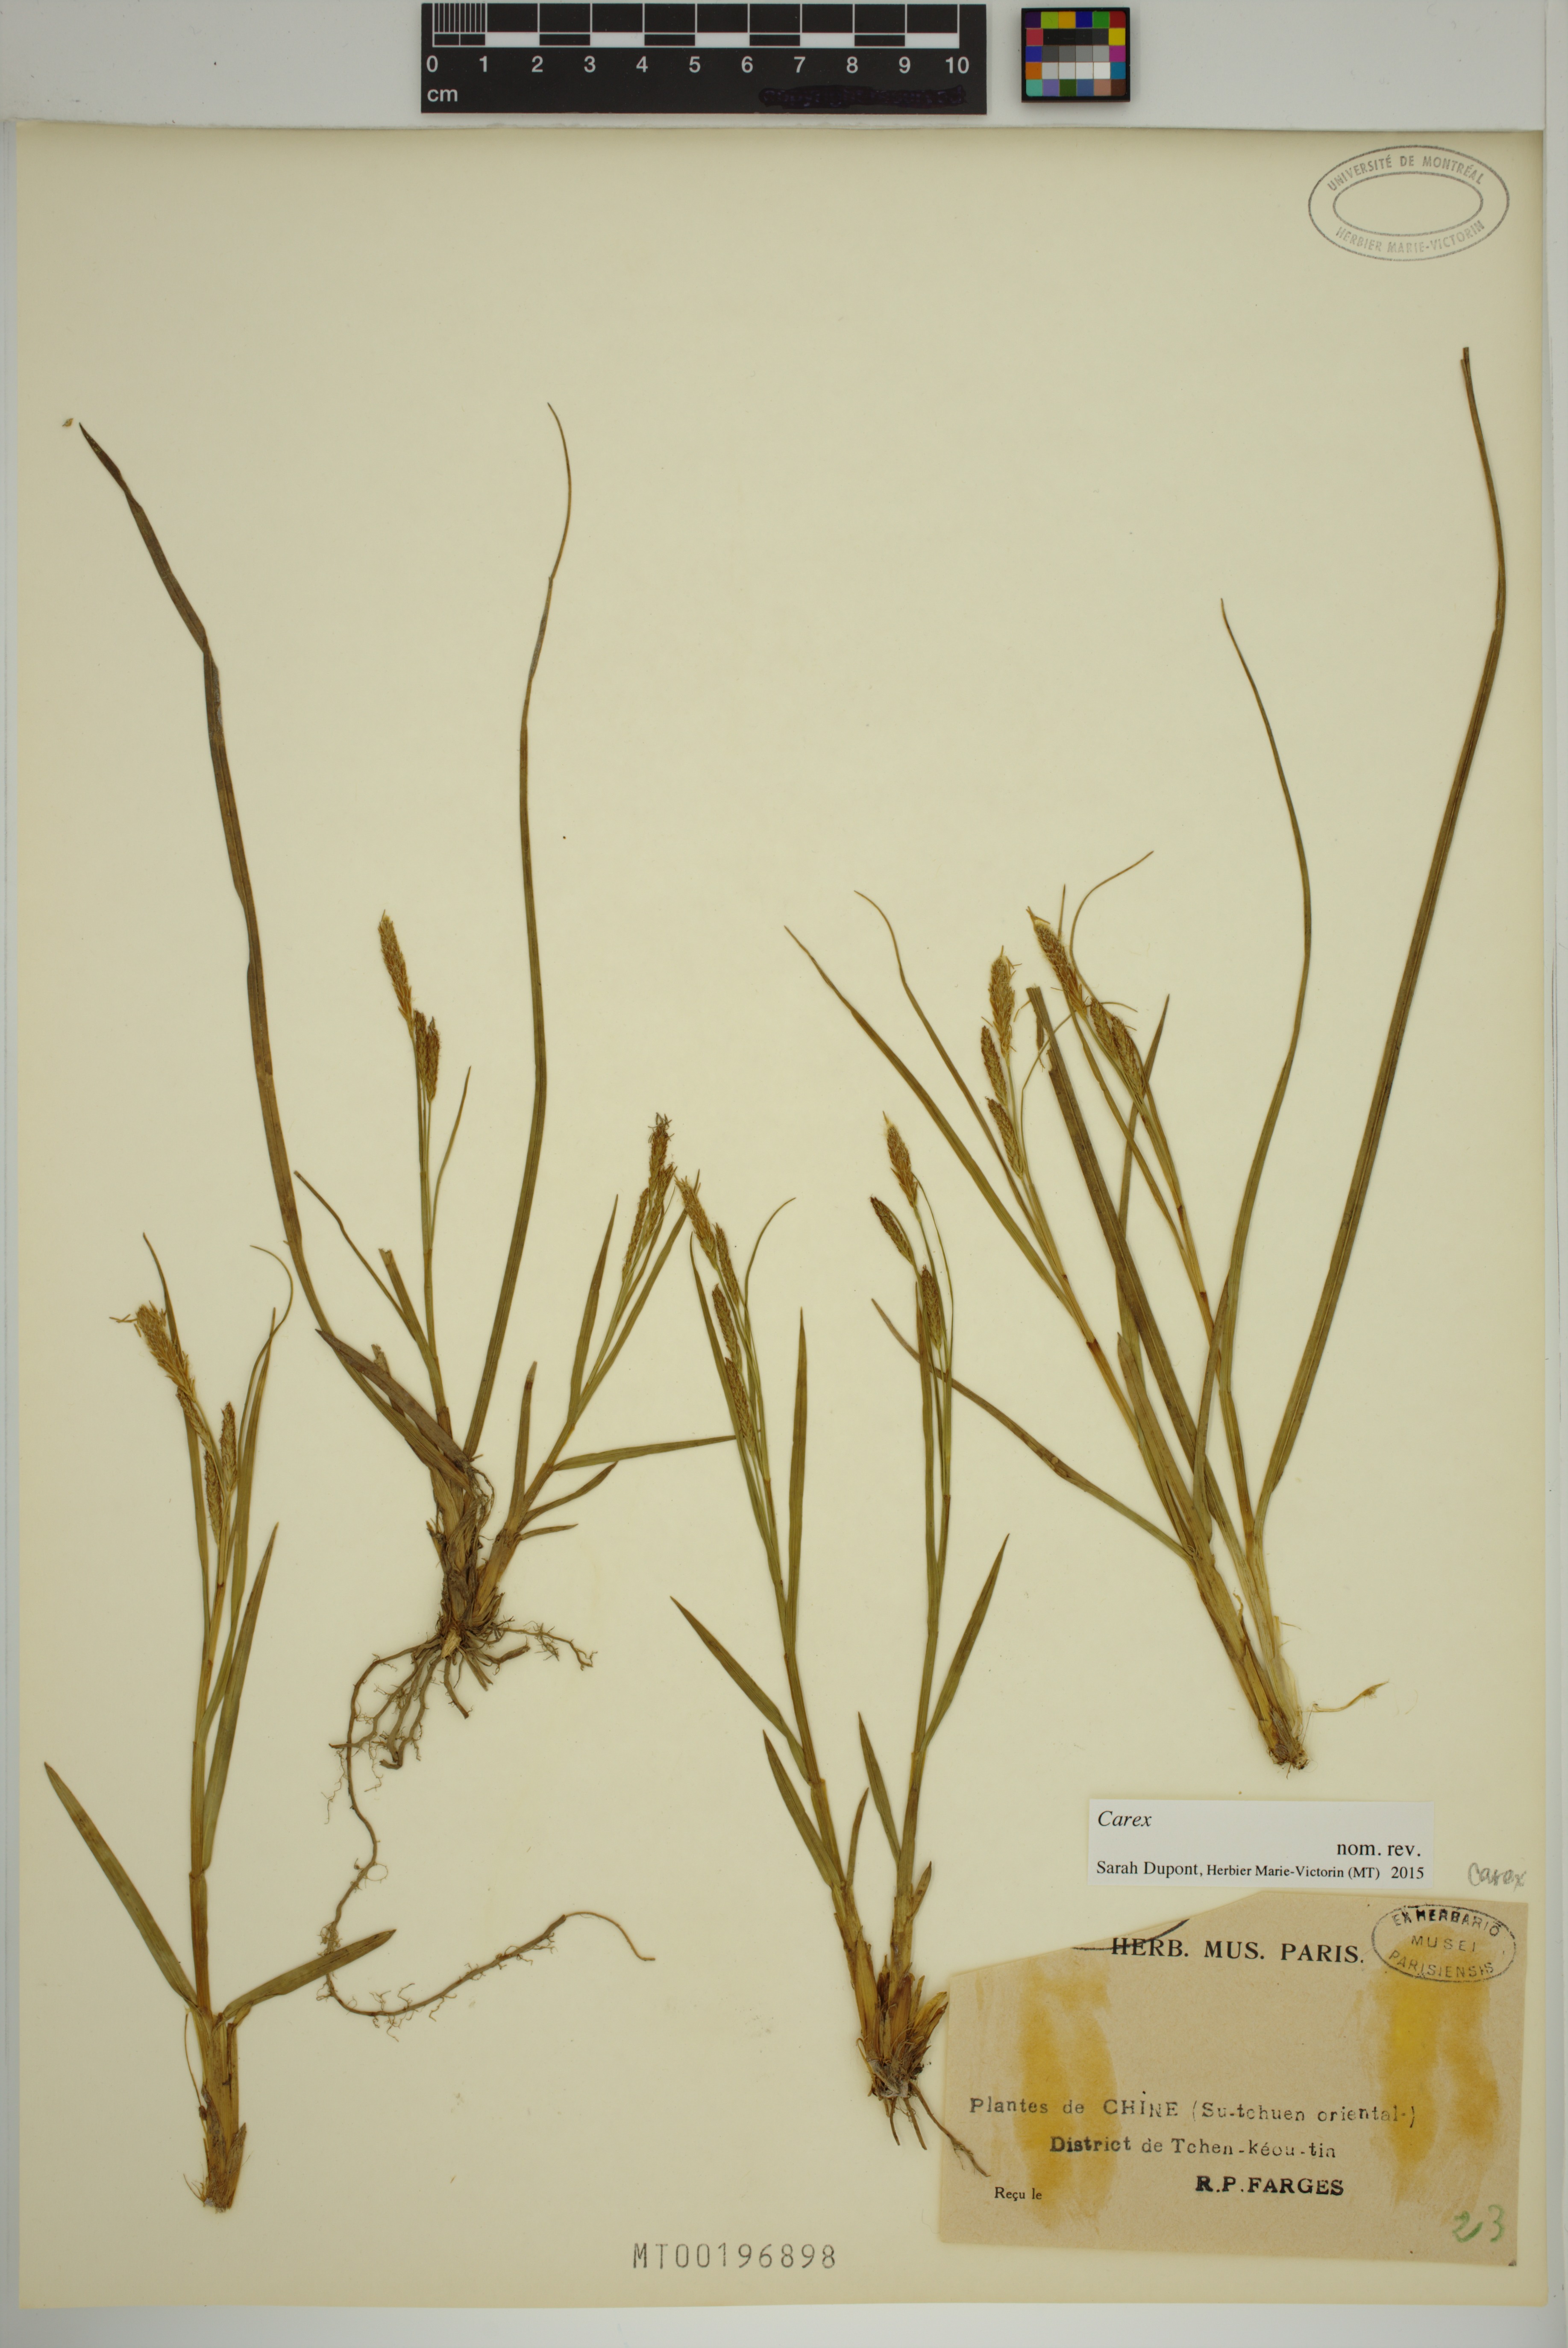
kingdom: Plantae
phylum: Tracheophyta
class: Liliopsida
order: Poales
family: Cyperaceae
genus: Carex
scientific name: Carex
